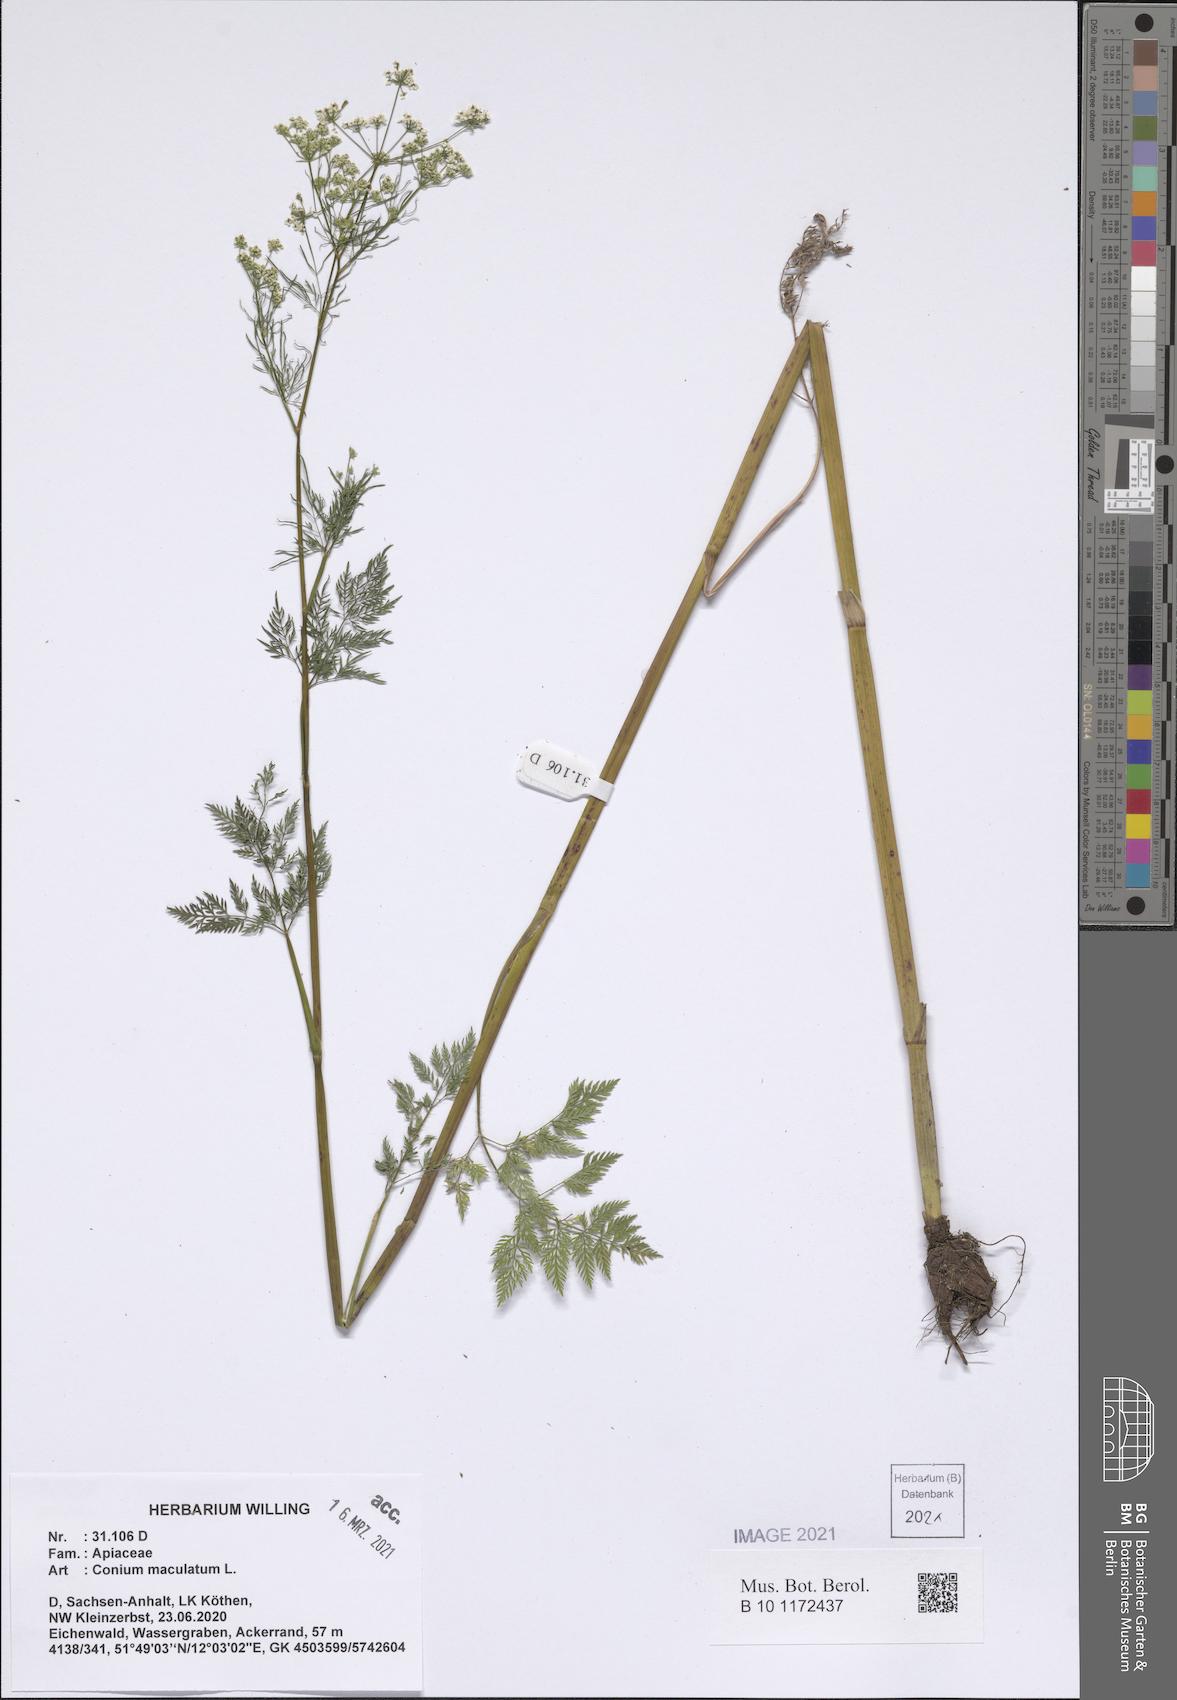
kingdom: Plantae
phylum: Tracheophyta
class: Magnoliopsida
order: Apiales
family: Apiaceae
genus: Conium
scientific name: Conium maculatum
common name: Hemlock
